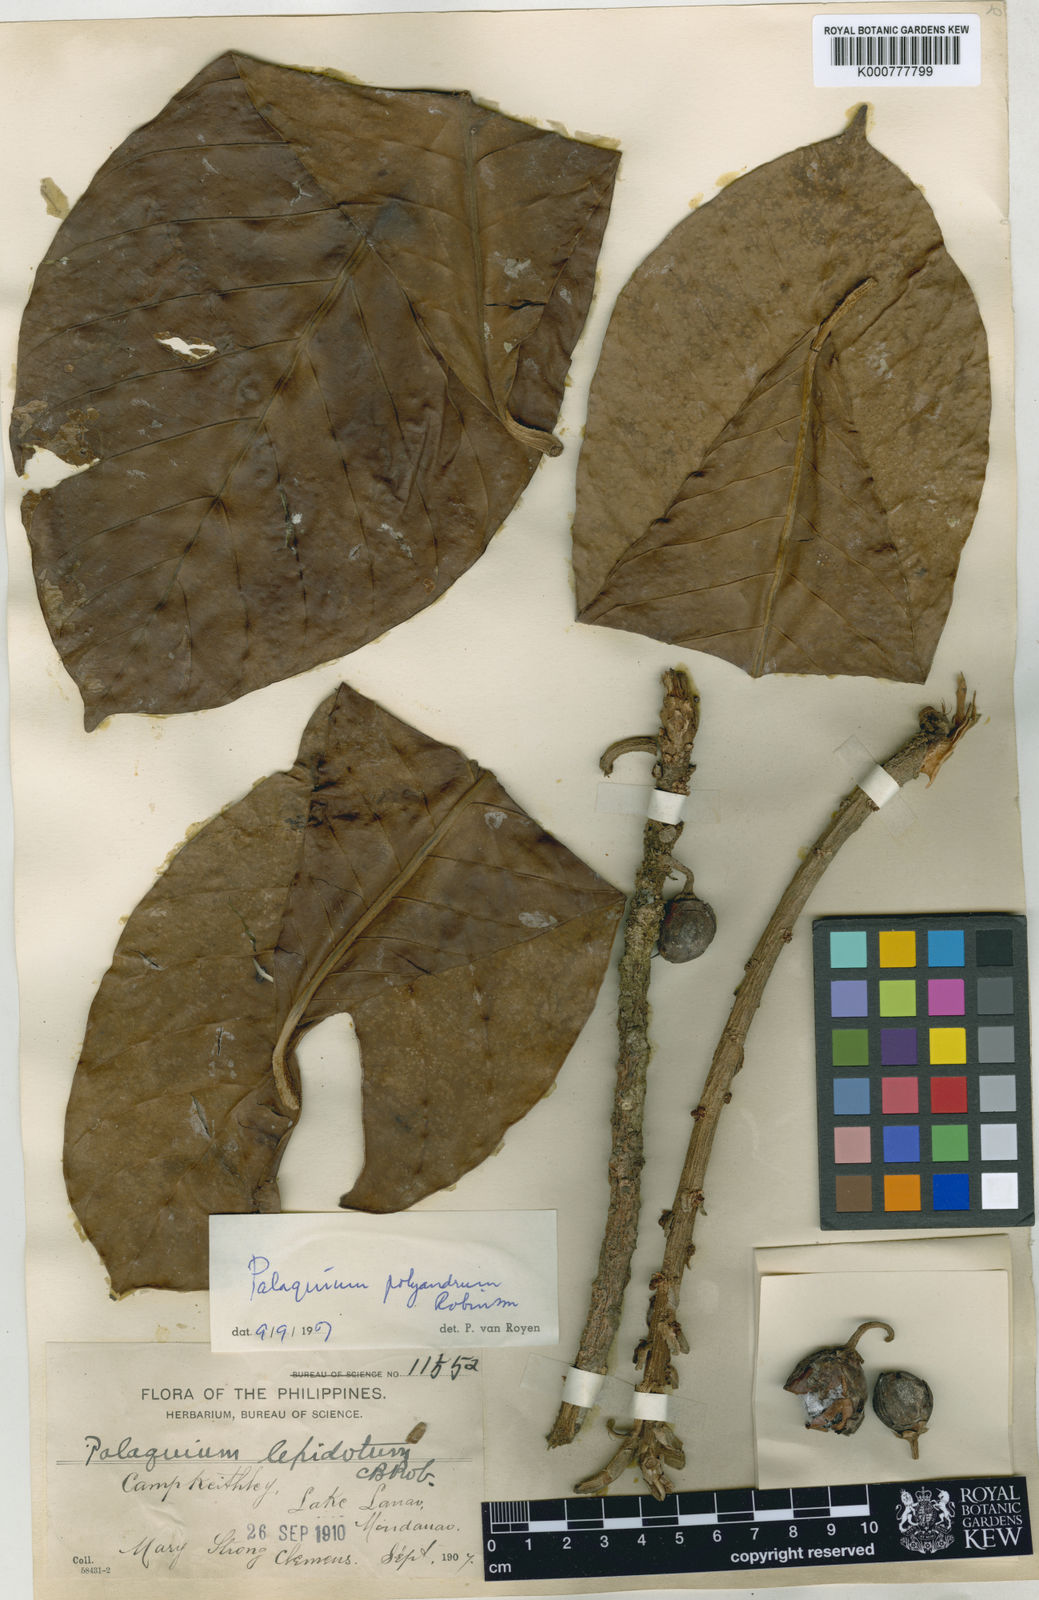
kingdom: Plantae
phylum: Tracheophyta
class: Magnoliopsida
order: Ericales
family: Sapotaceae
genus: Palaquium
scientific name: Palaquium polyandrum
